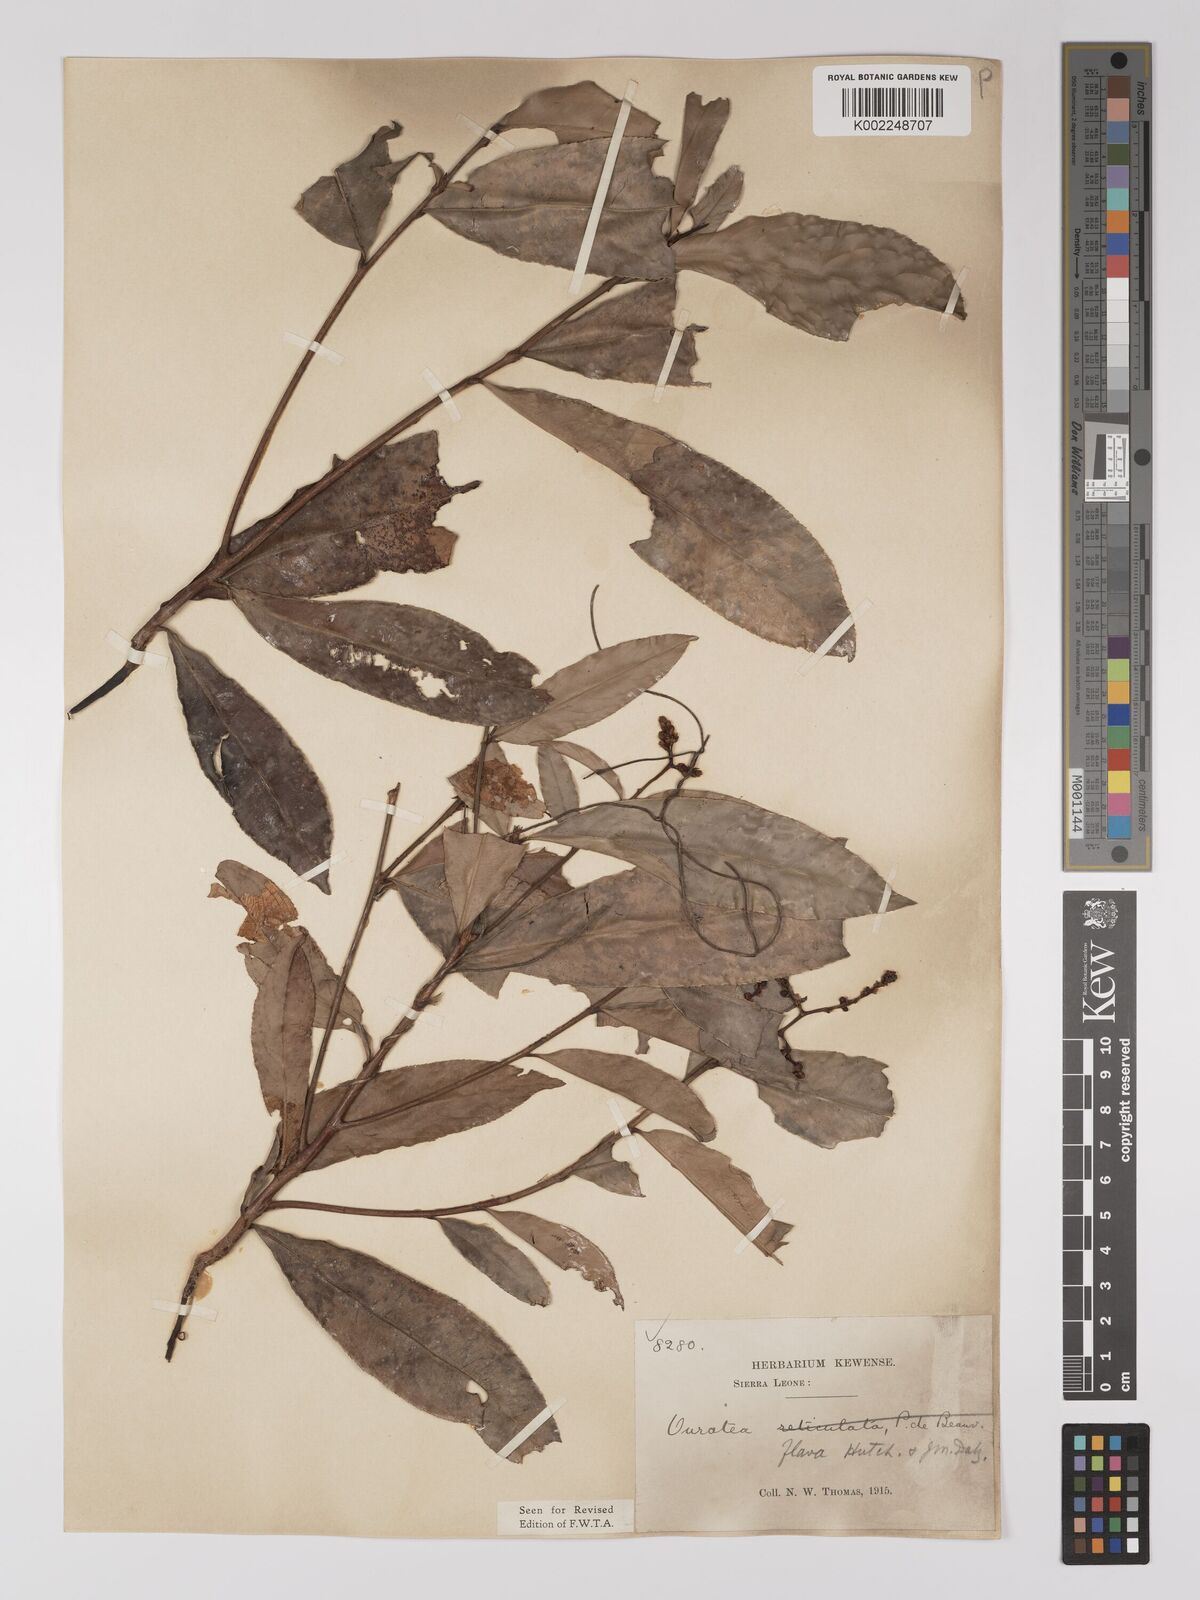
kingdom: Plantae
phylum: Tracheophyta
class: Magnoliopsida
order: Malpighiales
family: Ochnaceae
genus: Campylospermum
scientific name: Campylospermum flavum
